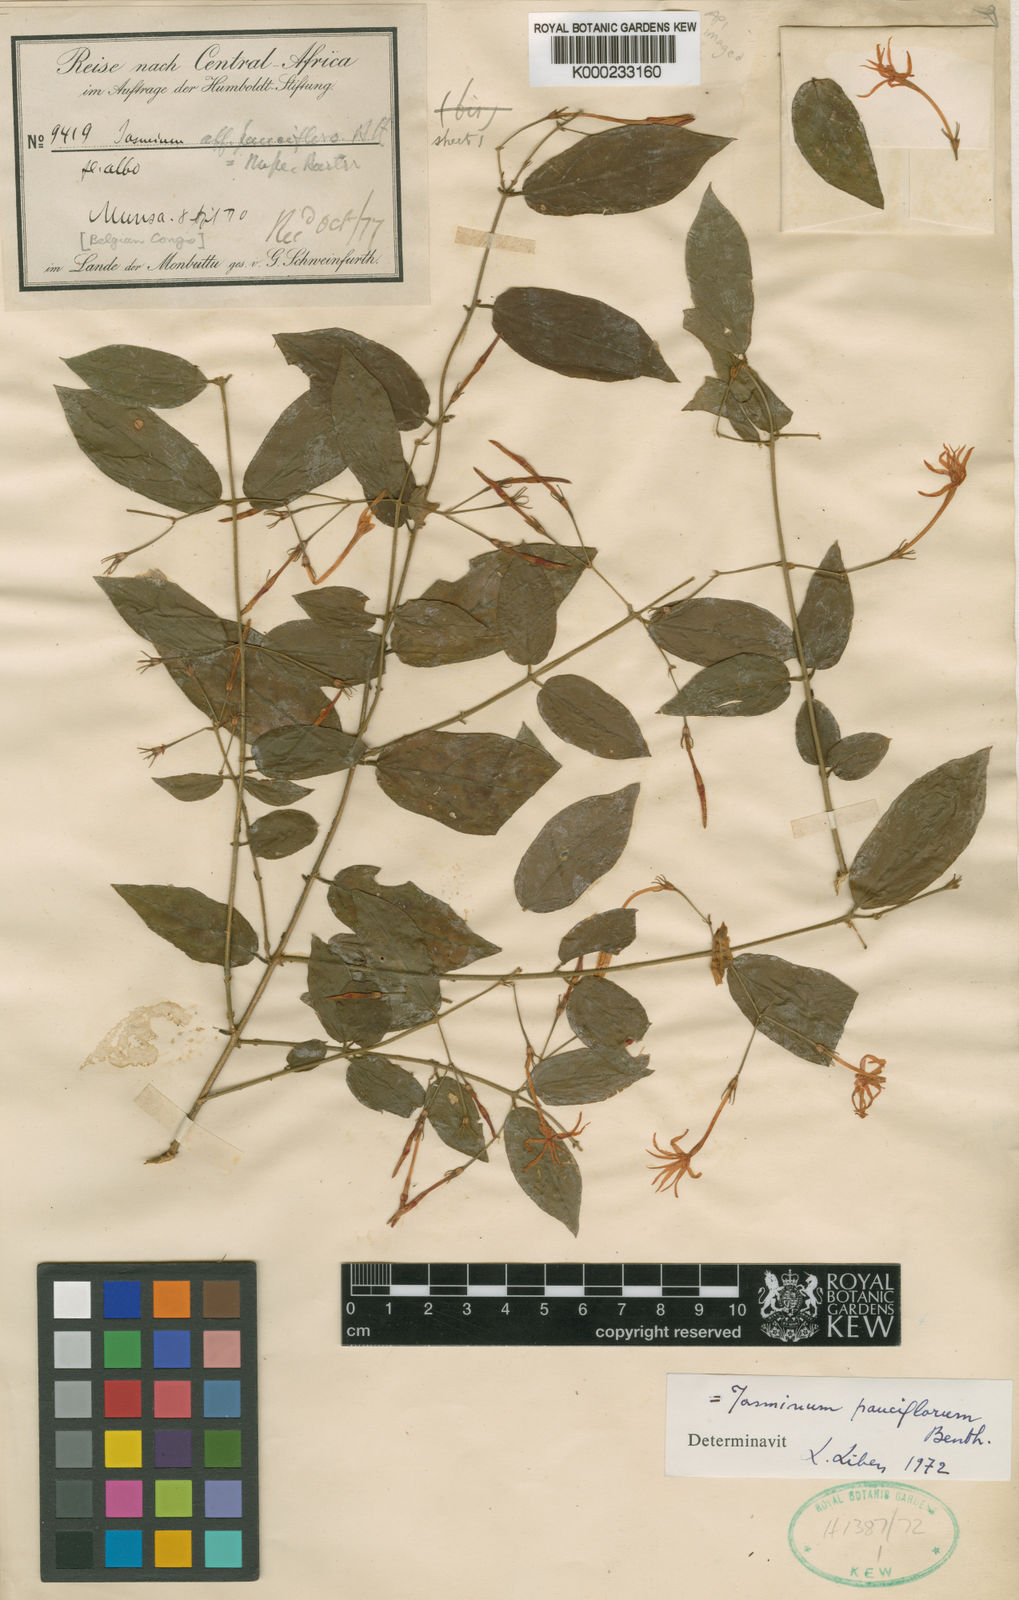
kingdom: Plantae
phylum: Tracheophyta
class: Magnoliopsida
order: Lamiales
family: Oleaceae
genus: Jasminum
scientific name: Jasminum pauciflorum
